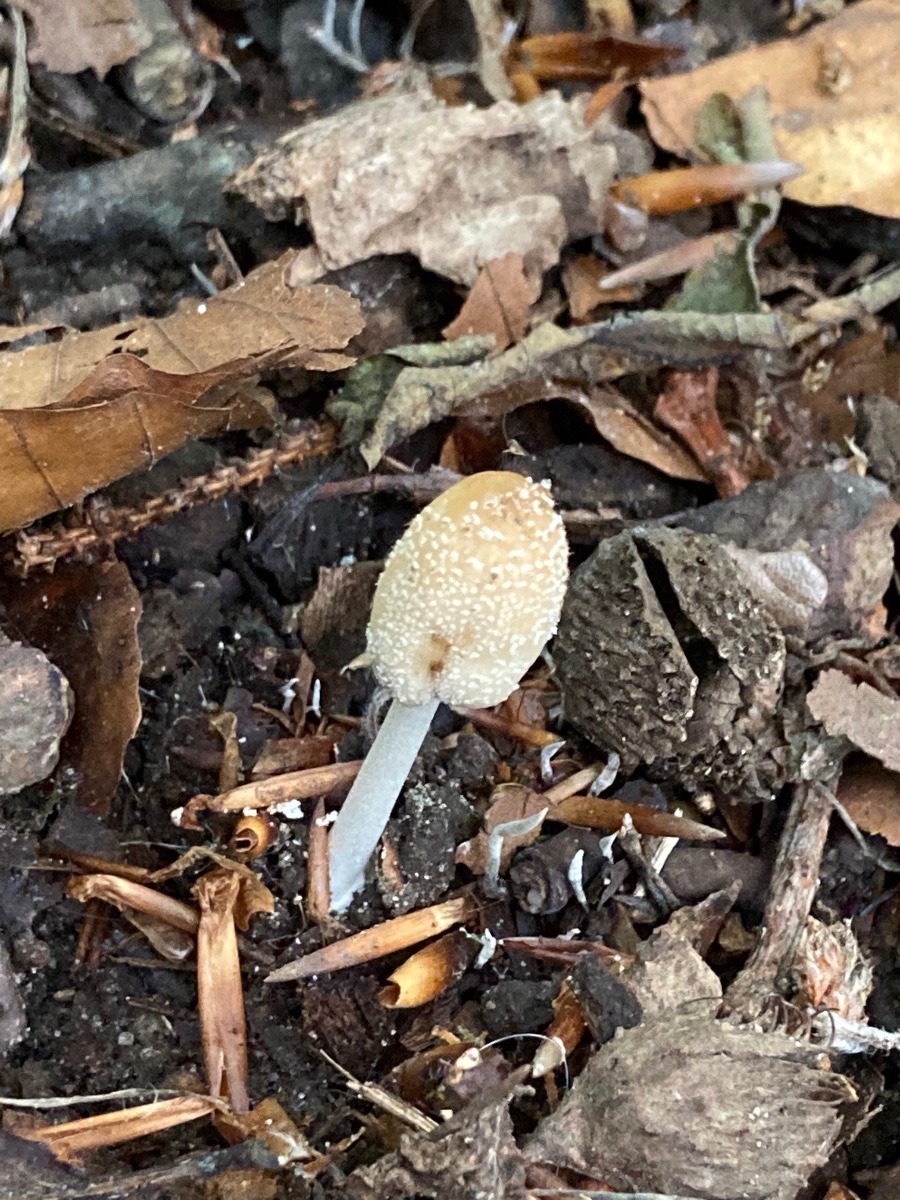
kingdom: Fungi
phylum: Basidiomycota
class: Agaricomycetes
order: Agaricales
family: Psathyrellaceae
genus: Coprinellus
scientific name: Coprinellus domesticus
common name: hus-blækhat
